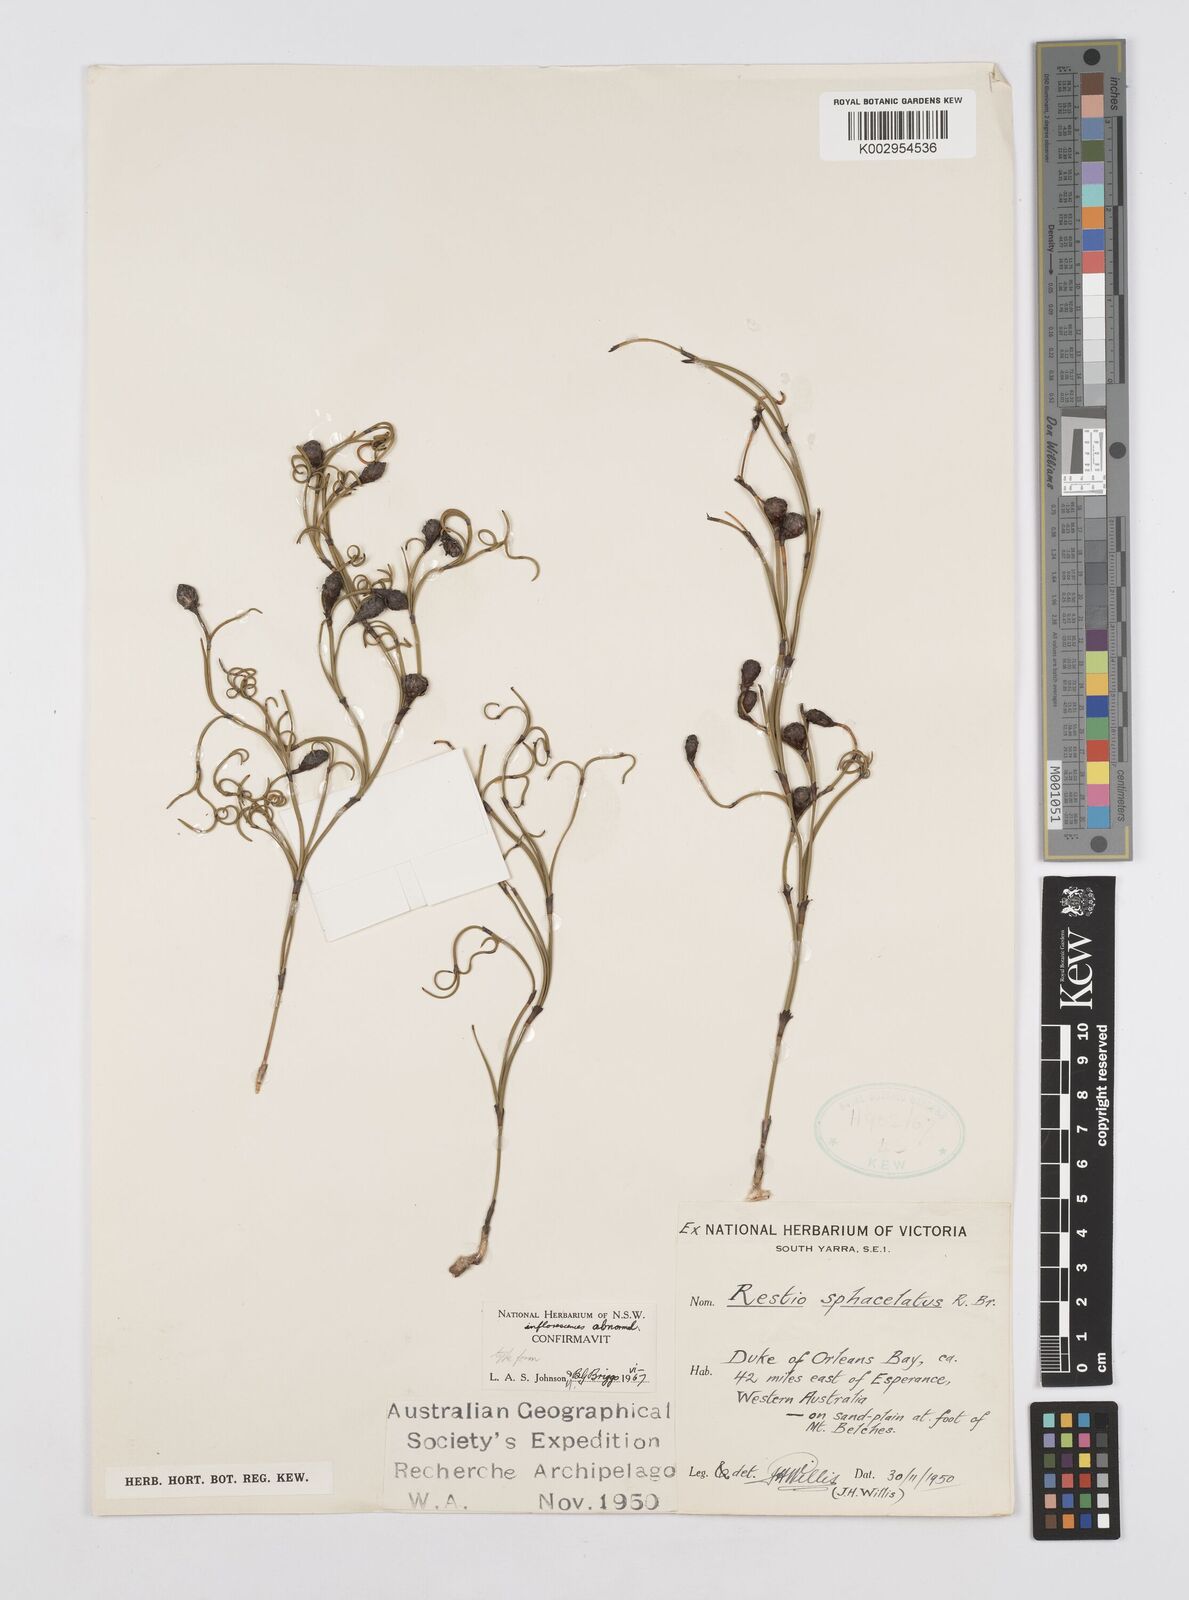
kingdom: Plantae
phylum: Tracheophyta
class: Liliopsida
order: Poales
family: Restionaceae
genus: Chordifex
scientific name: Chordifex sphacelatus
